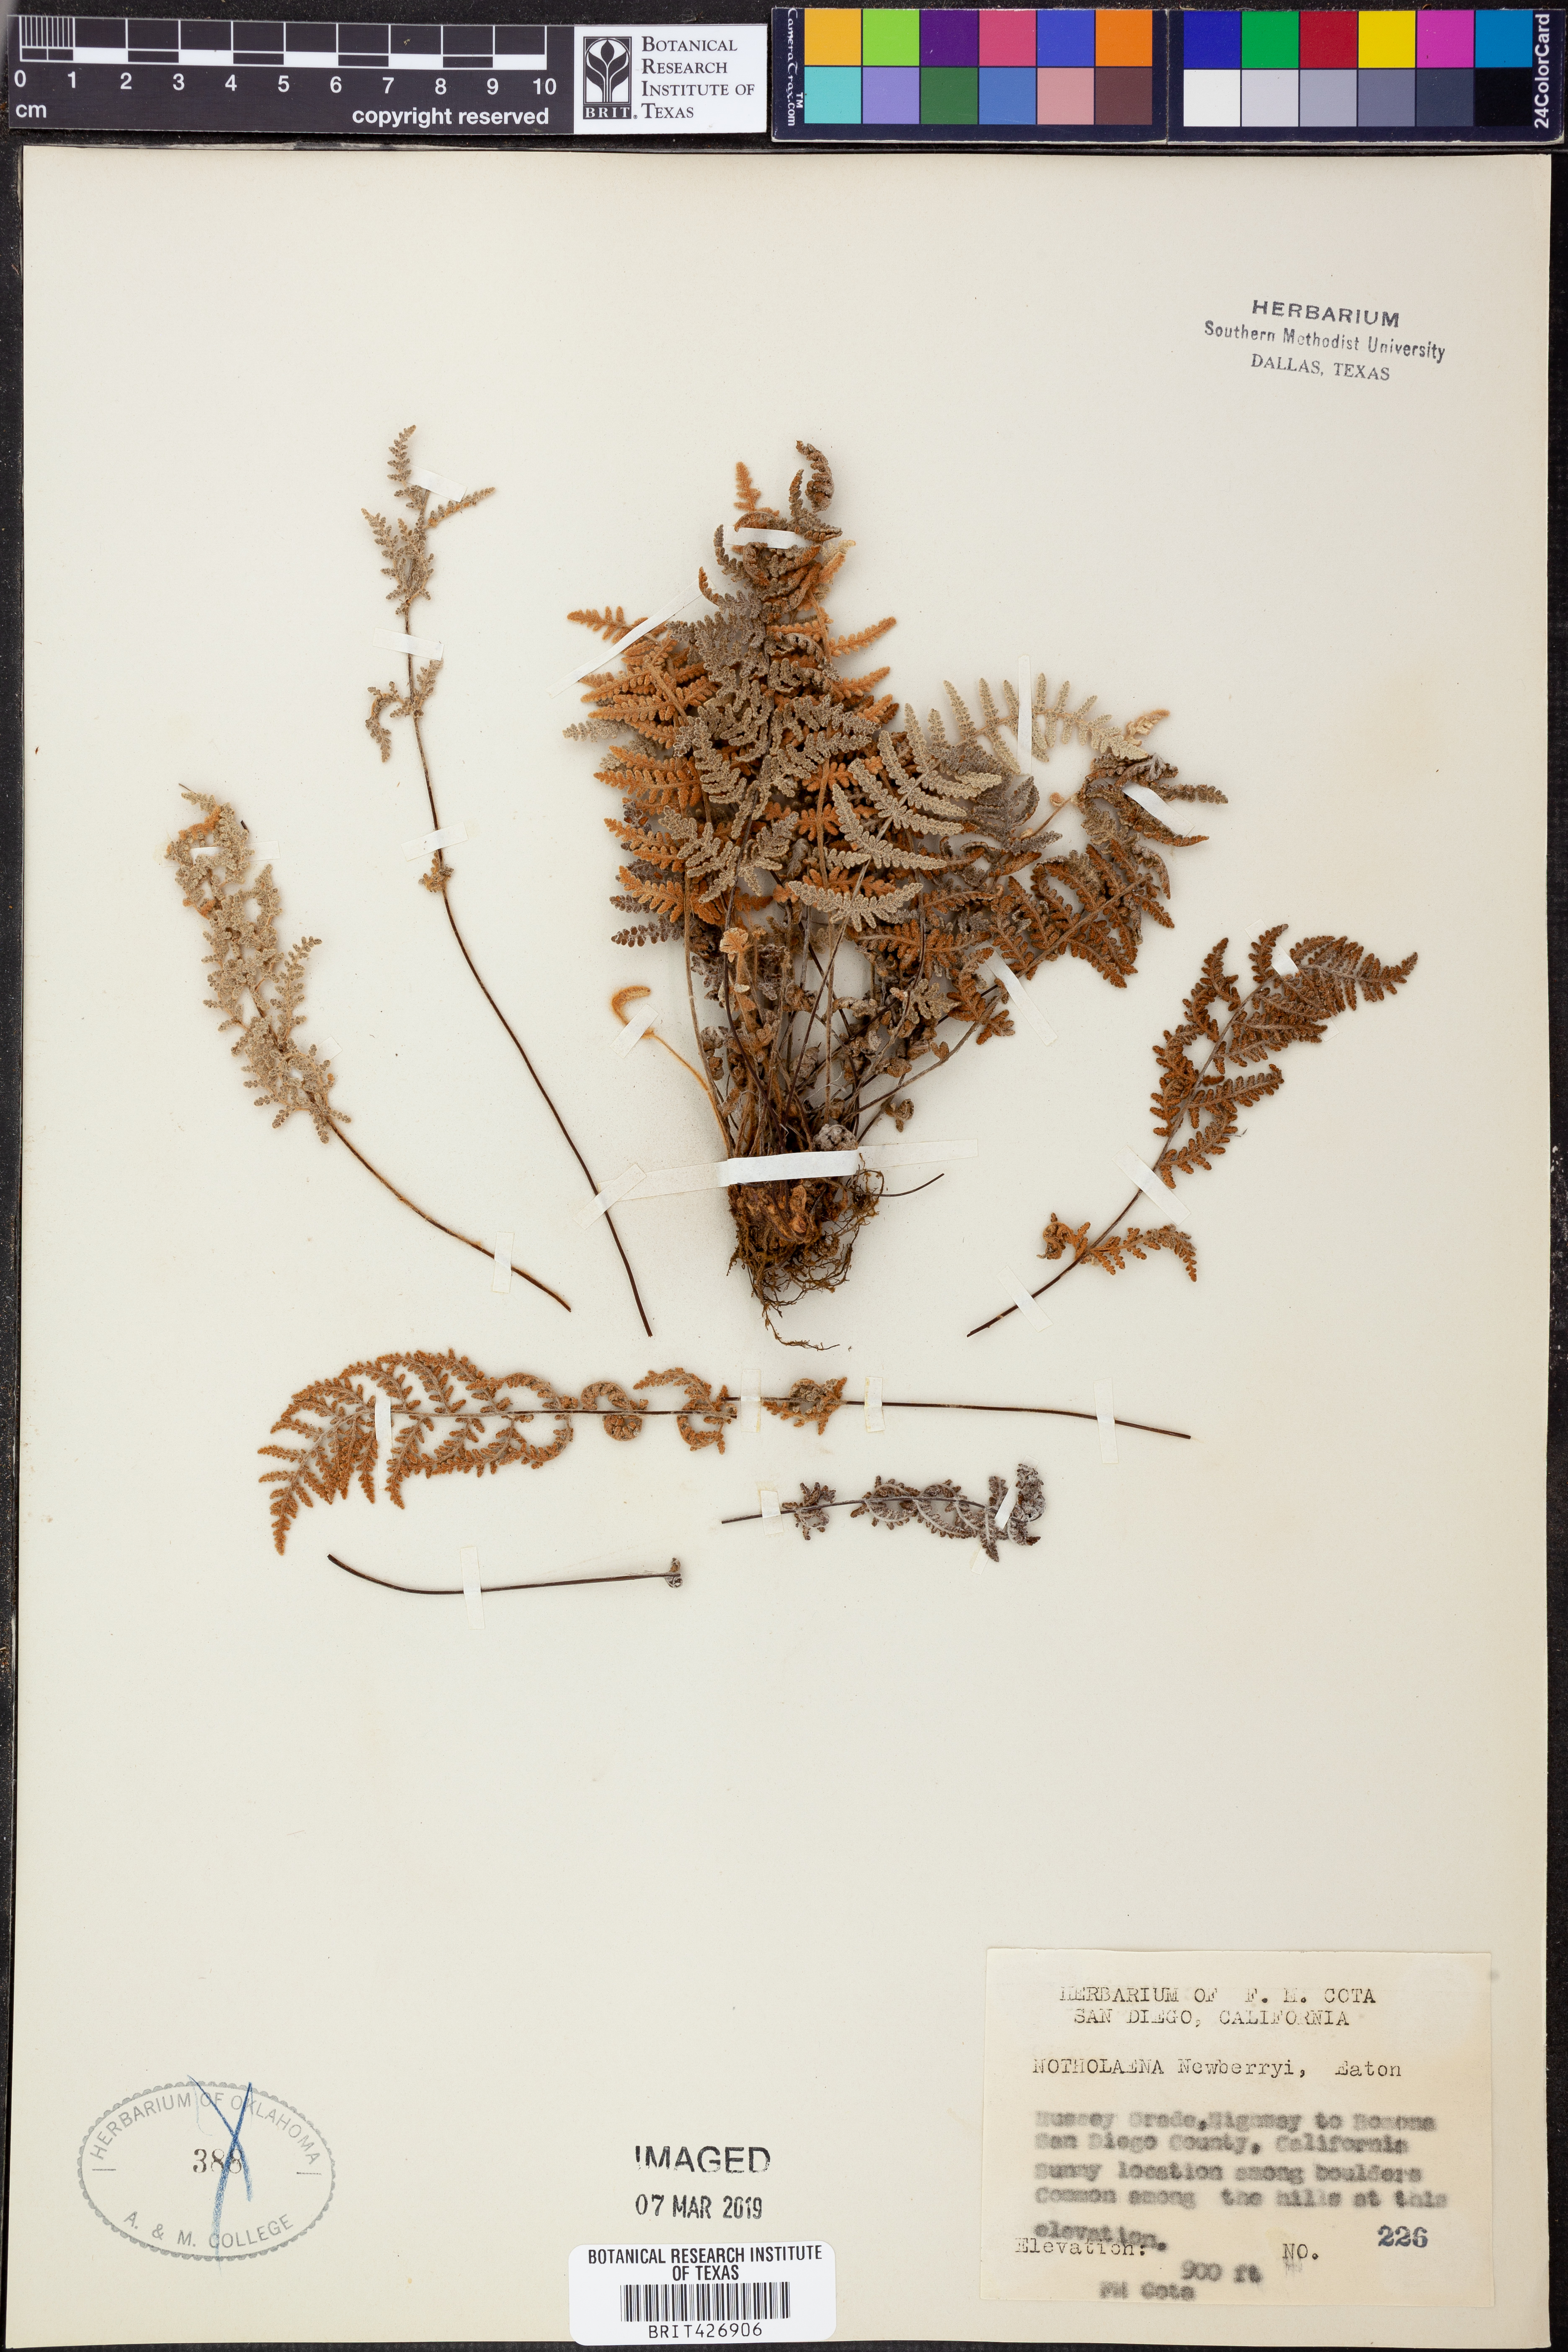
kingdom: Plantae
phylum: Tracheophyta
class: Polypodiopsida
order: Polypodiales
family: Pteridaceae
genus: Myriopteris
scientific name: Myriopteris newberryi
